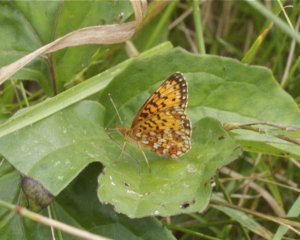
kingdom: Animalia
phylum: Arthropoda
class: Insecta
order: Lepidoptera
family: Nymphalidae
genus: Boloria
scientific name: Boloria selene
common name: Silver-bordered Fritillary
